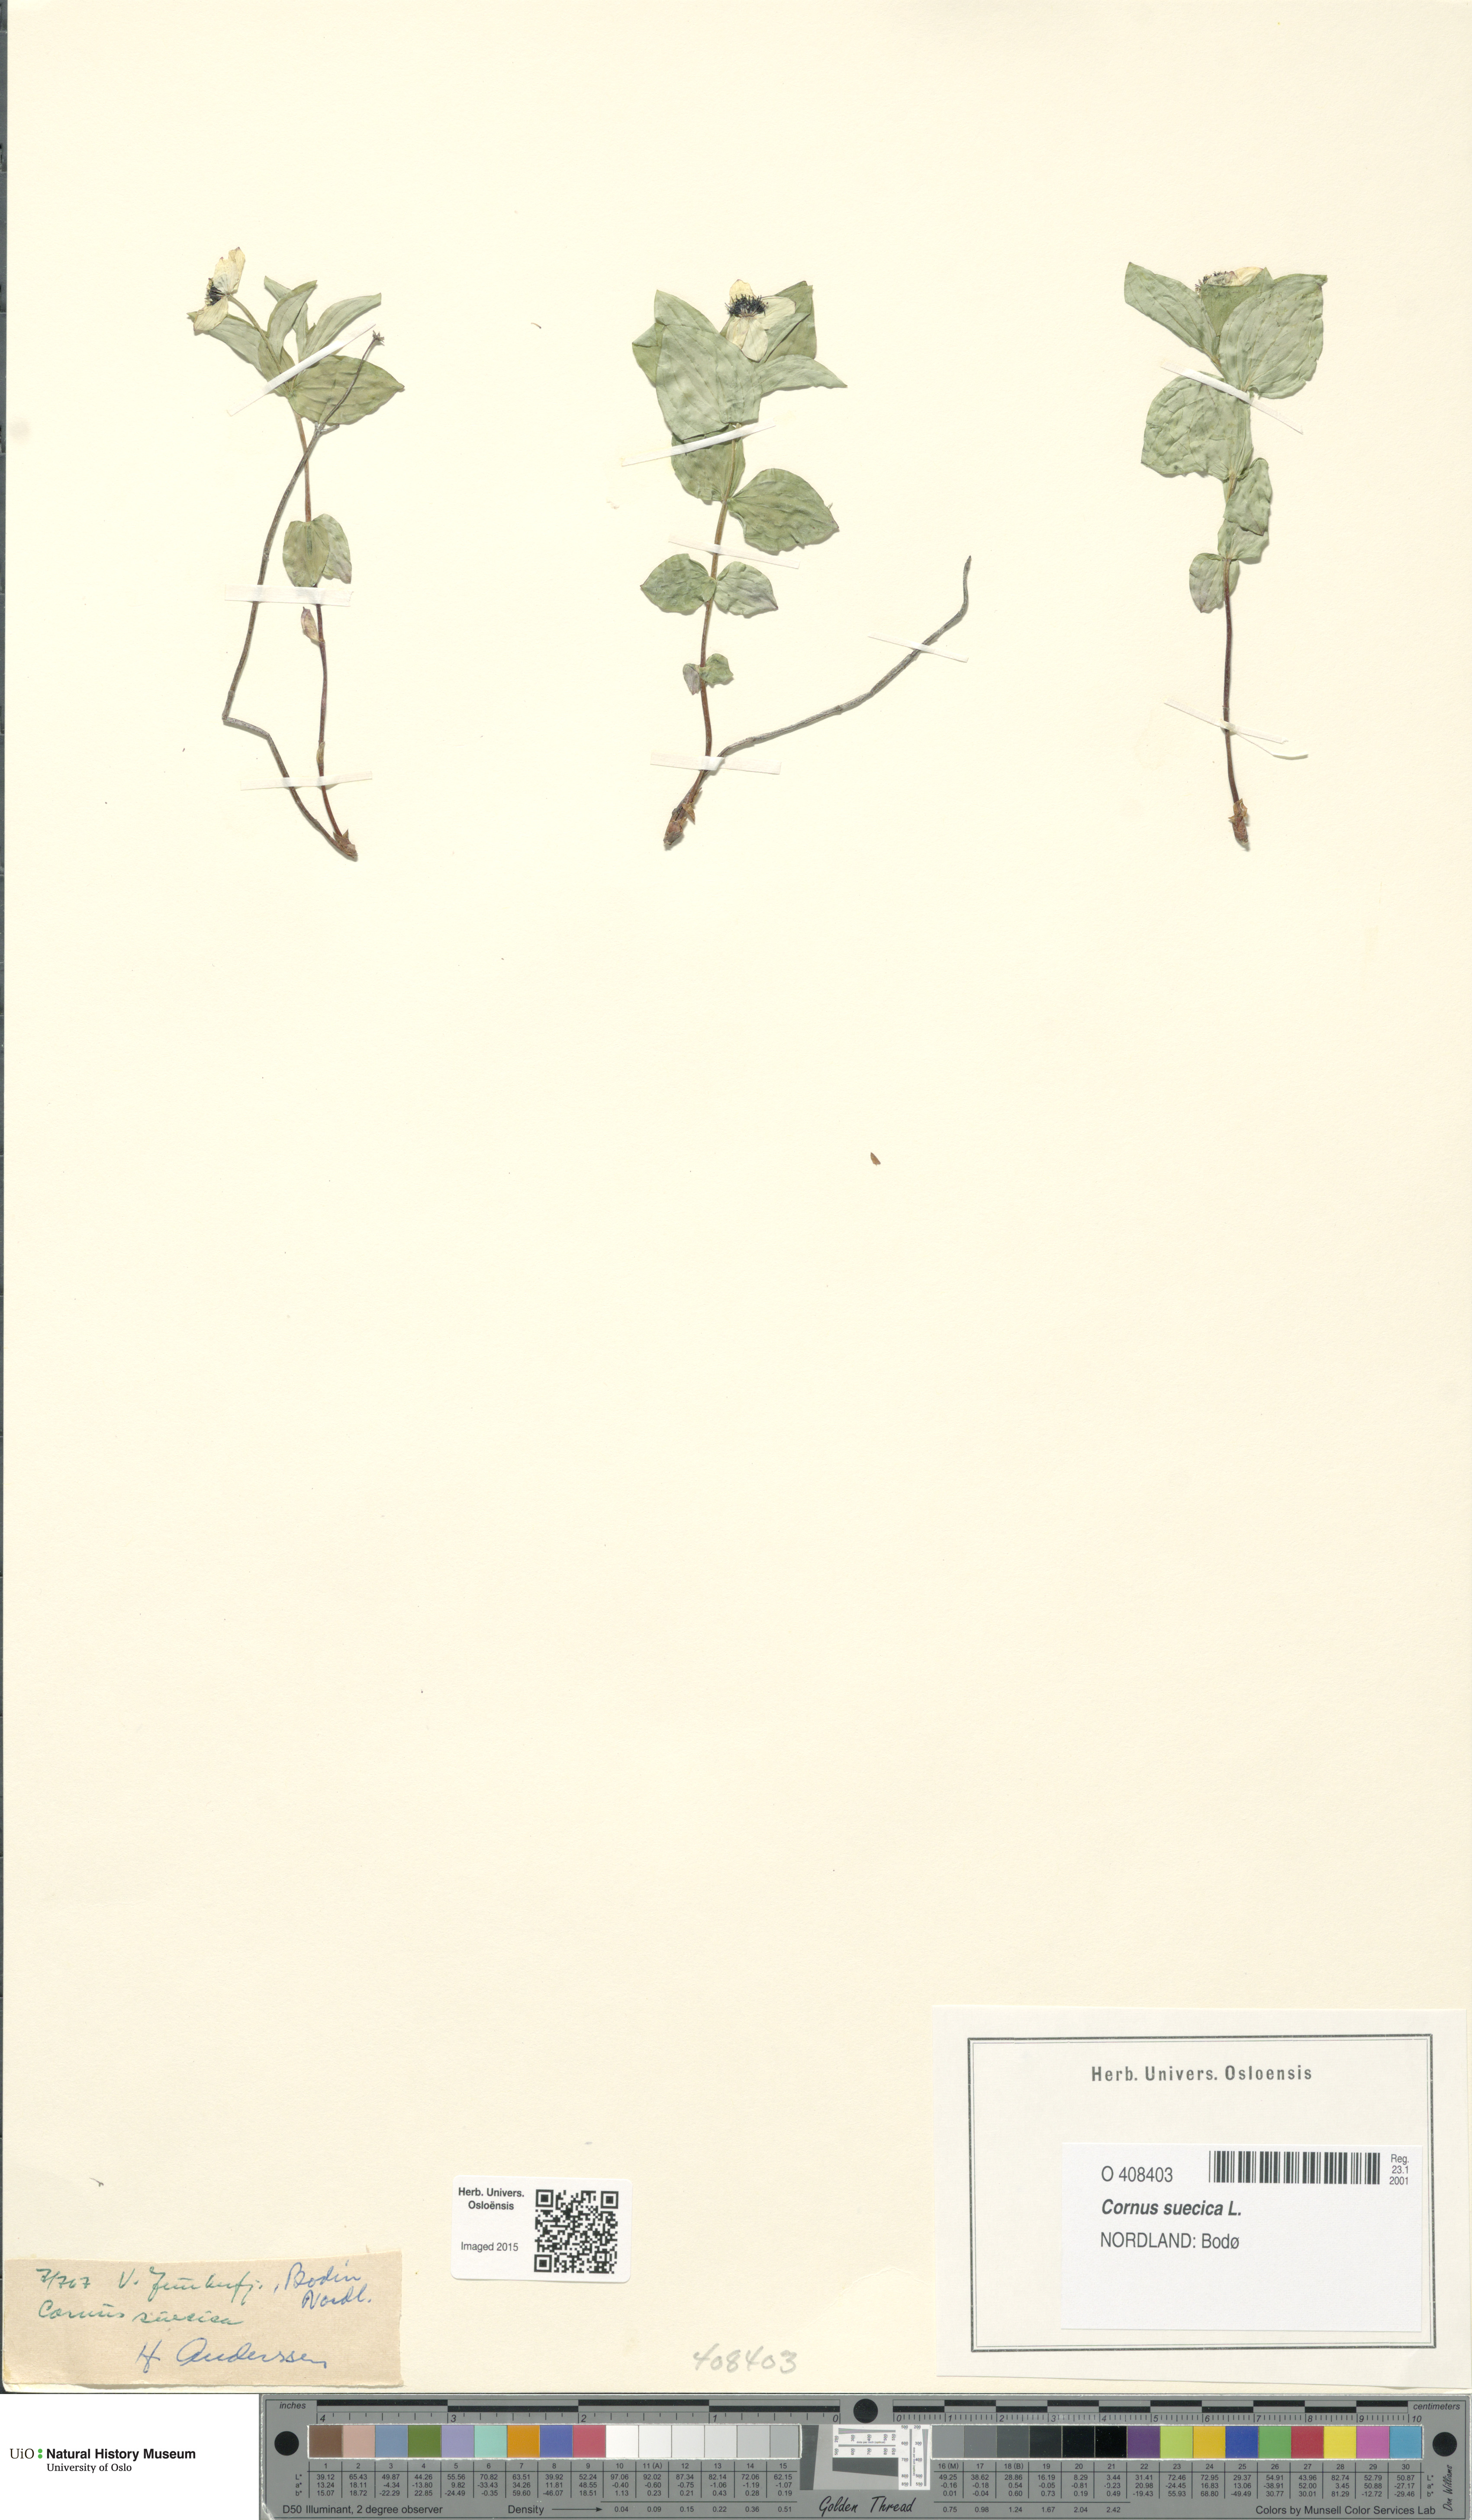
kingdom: Plantae
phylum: Tracheophyta
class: Magnoliopsida
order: Cornales
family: Cornaceae
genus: Cornus
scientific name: Cornus suecica
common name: Dwarf cornel
